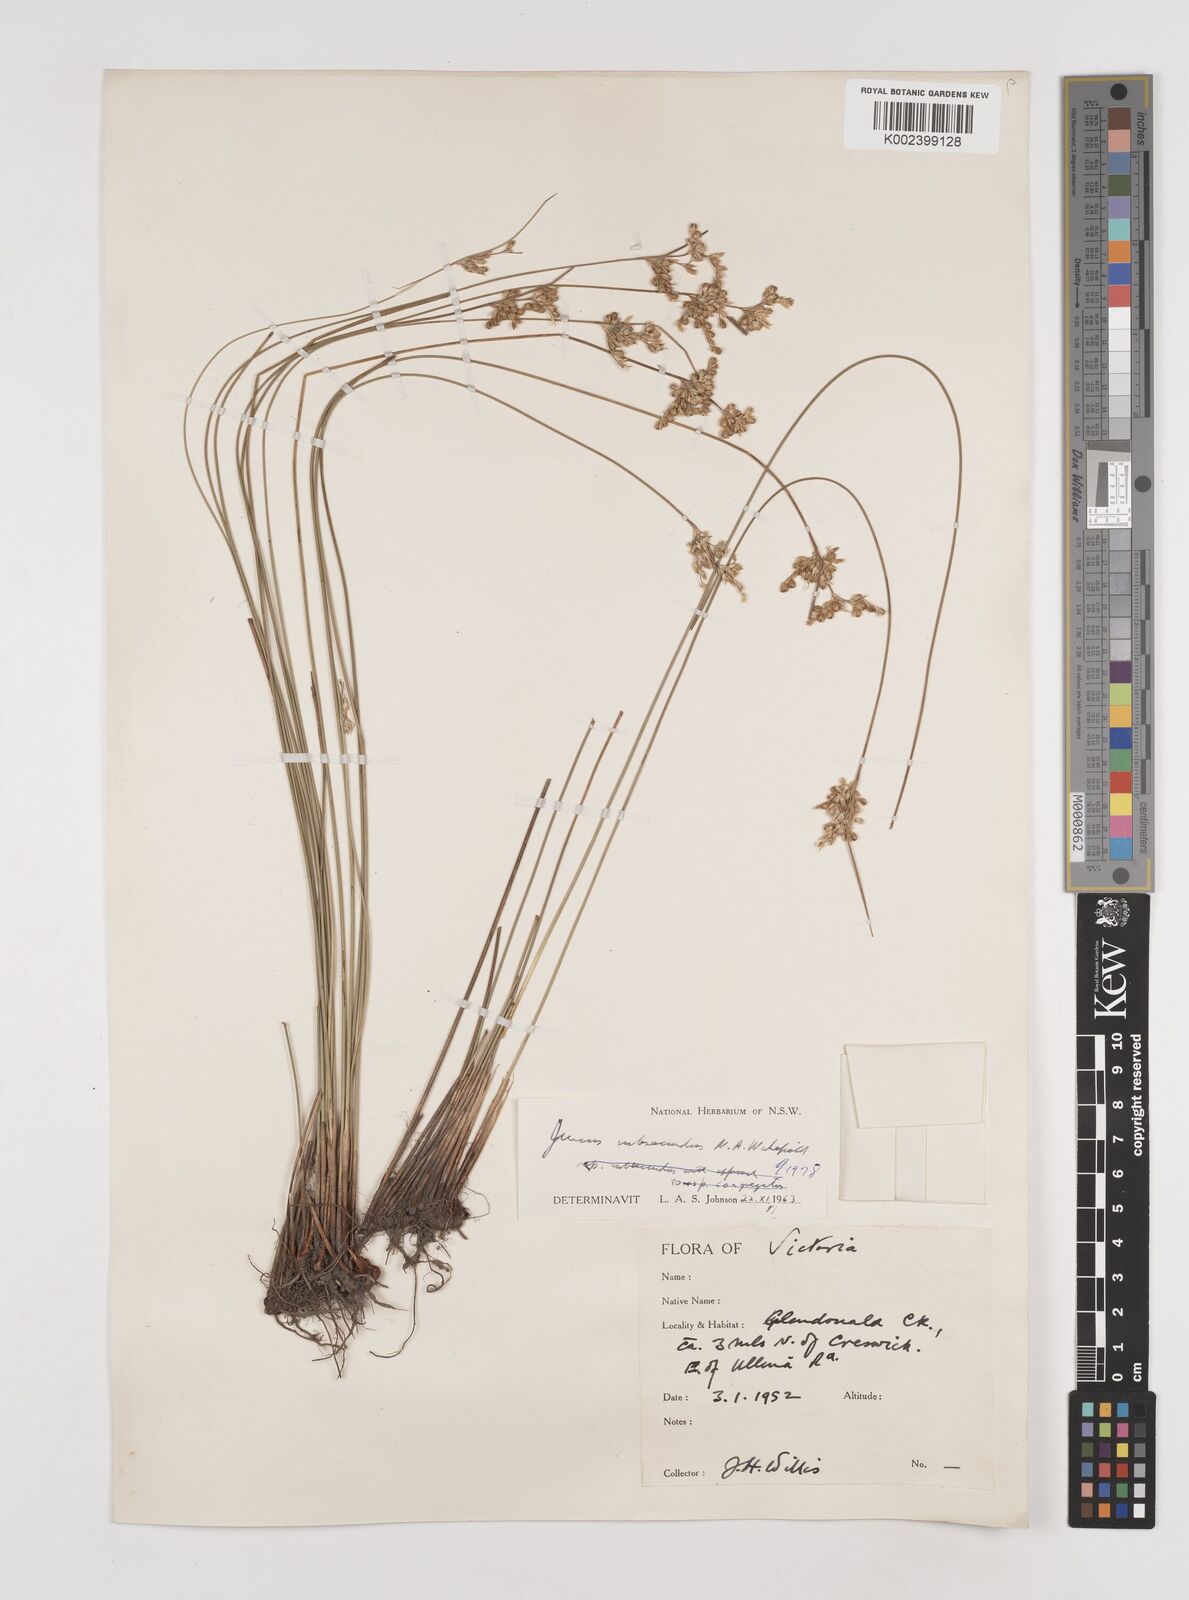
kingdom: Plantae
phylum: Tracheophyta
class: Liliopsida
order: Poales
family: Juncaceae
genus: Juncus
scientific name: Juncus subsecundus
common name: Fingered rush
